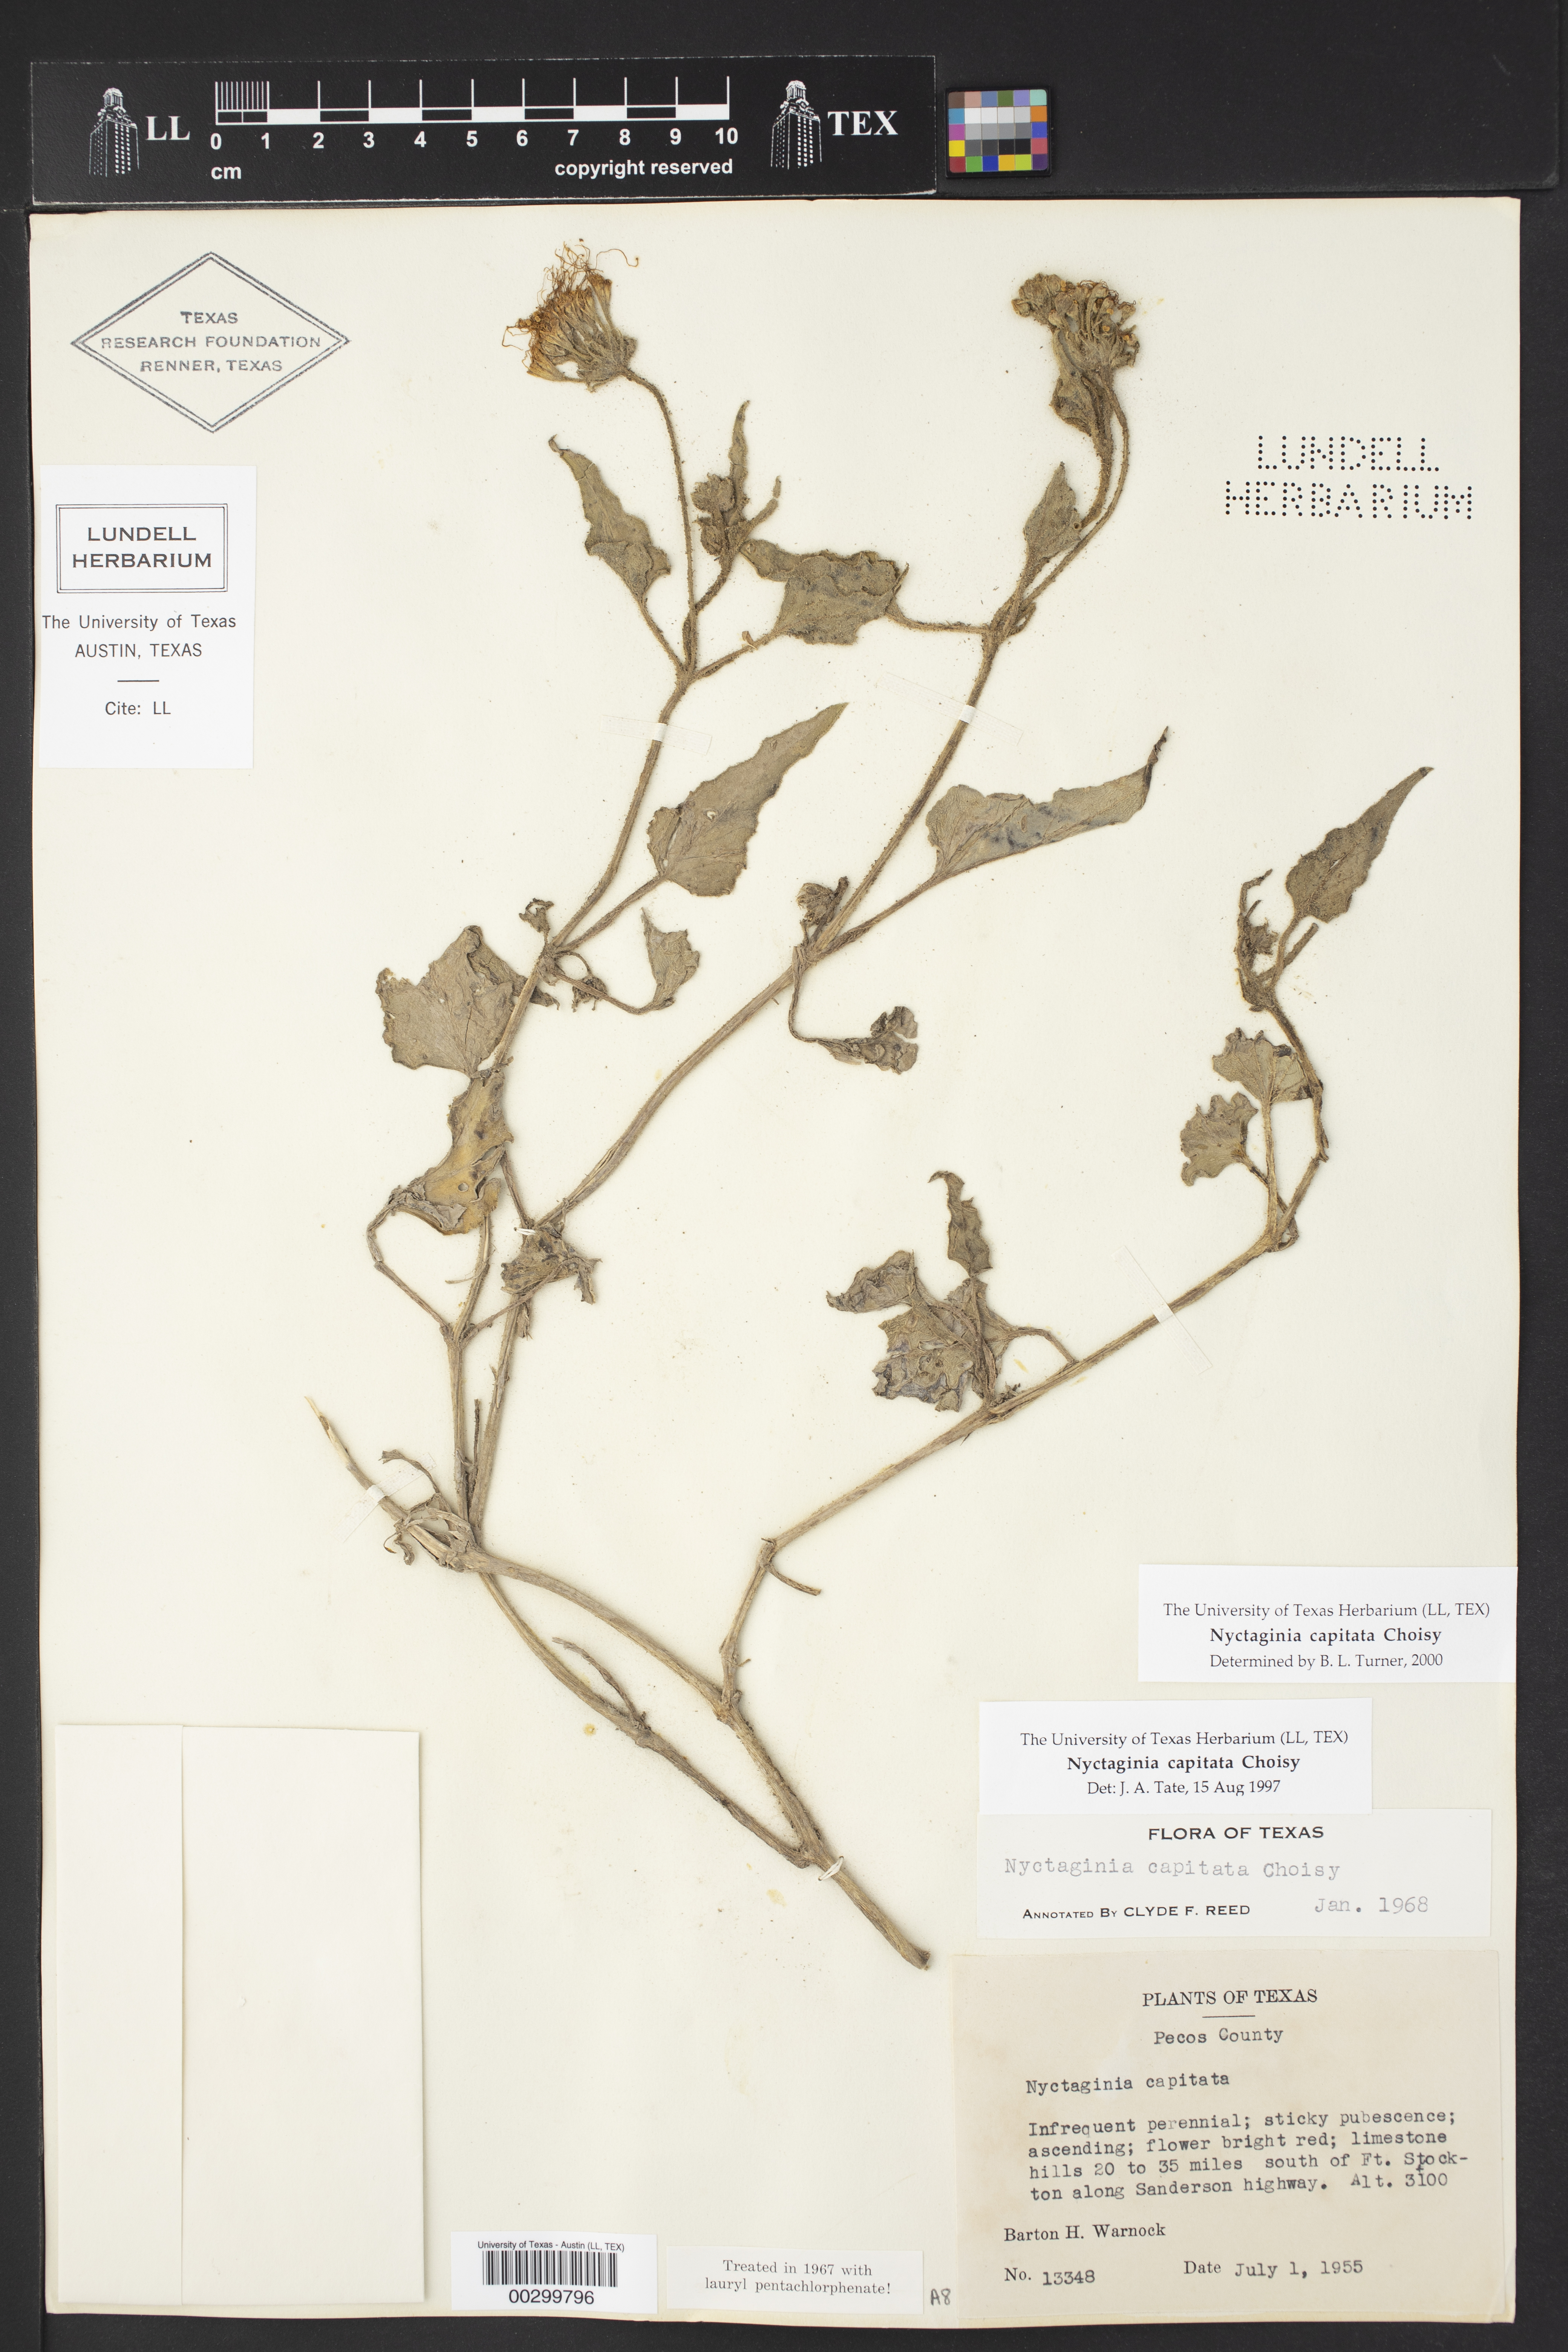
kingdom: Plantae
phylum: Tracheophyta
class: Magnoliopsida
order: Caryophyllales
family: Nyctaginaceae
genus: Nyctaginia
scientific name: Nyctaginia capitata
